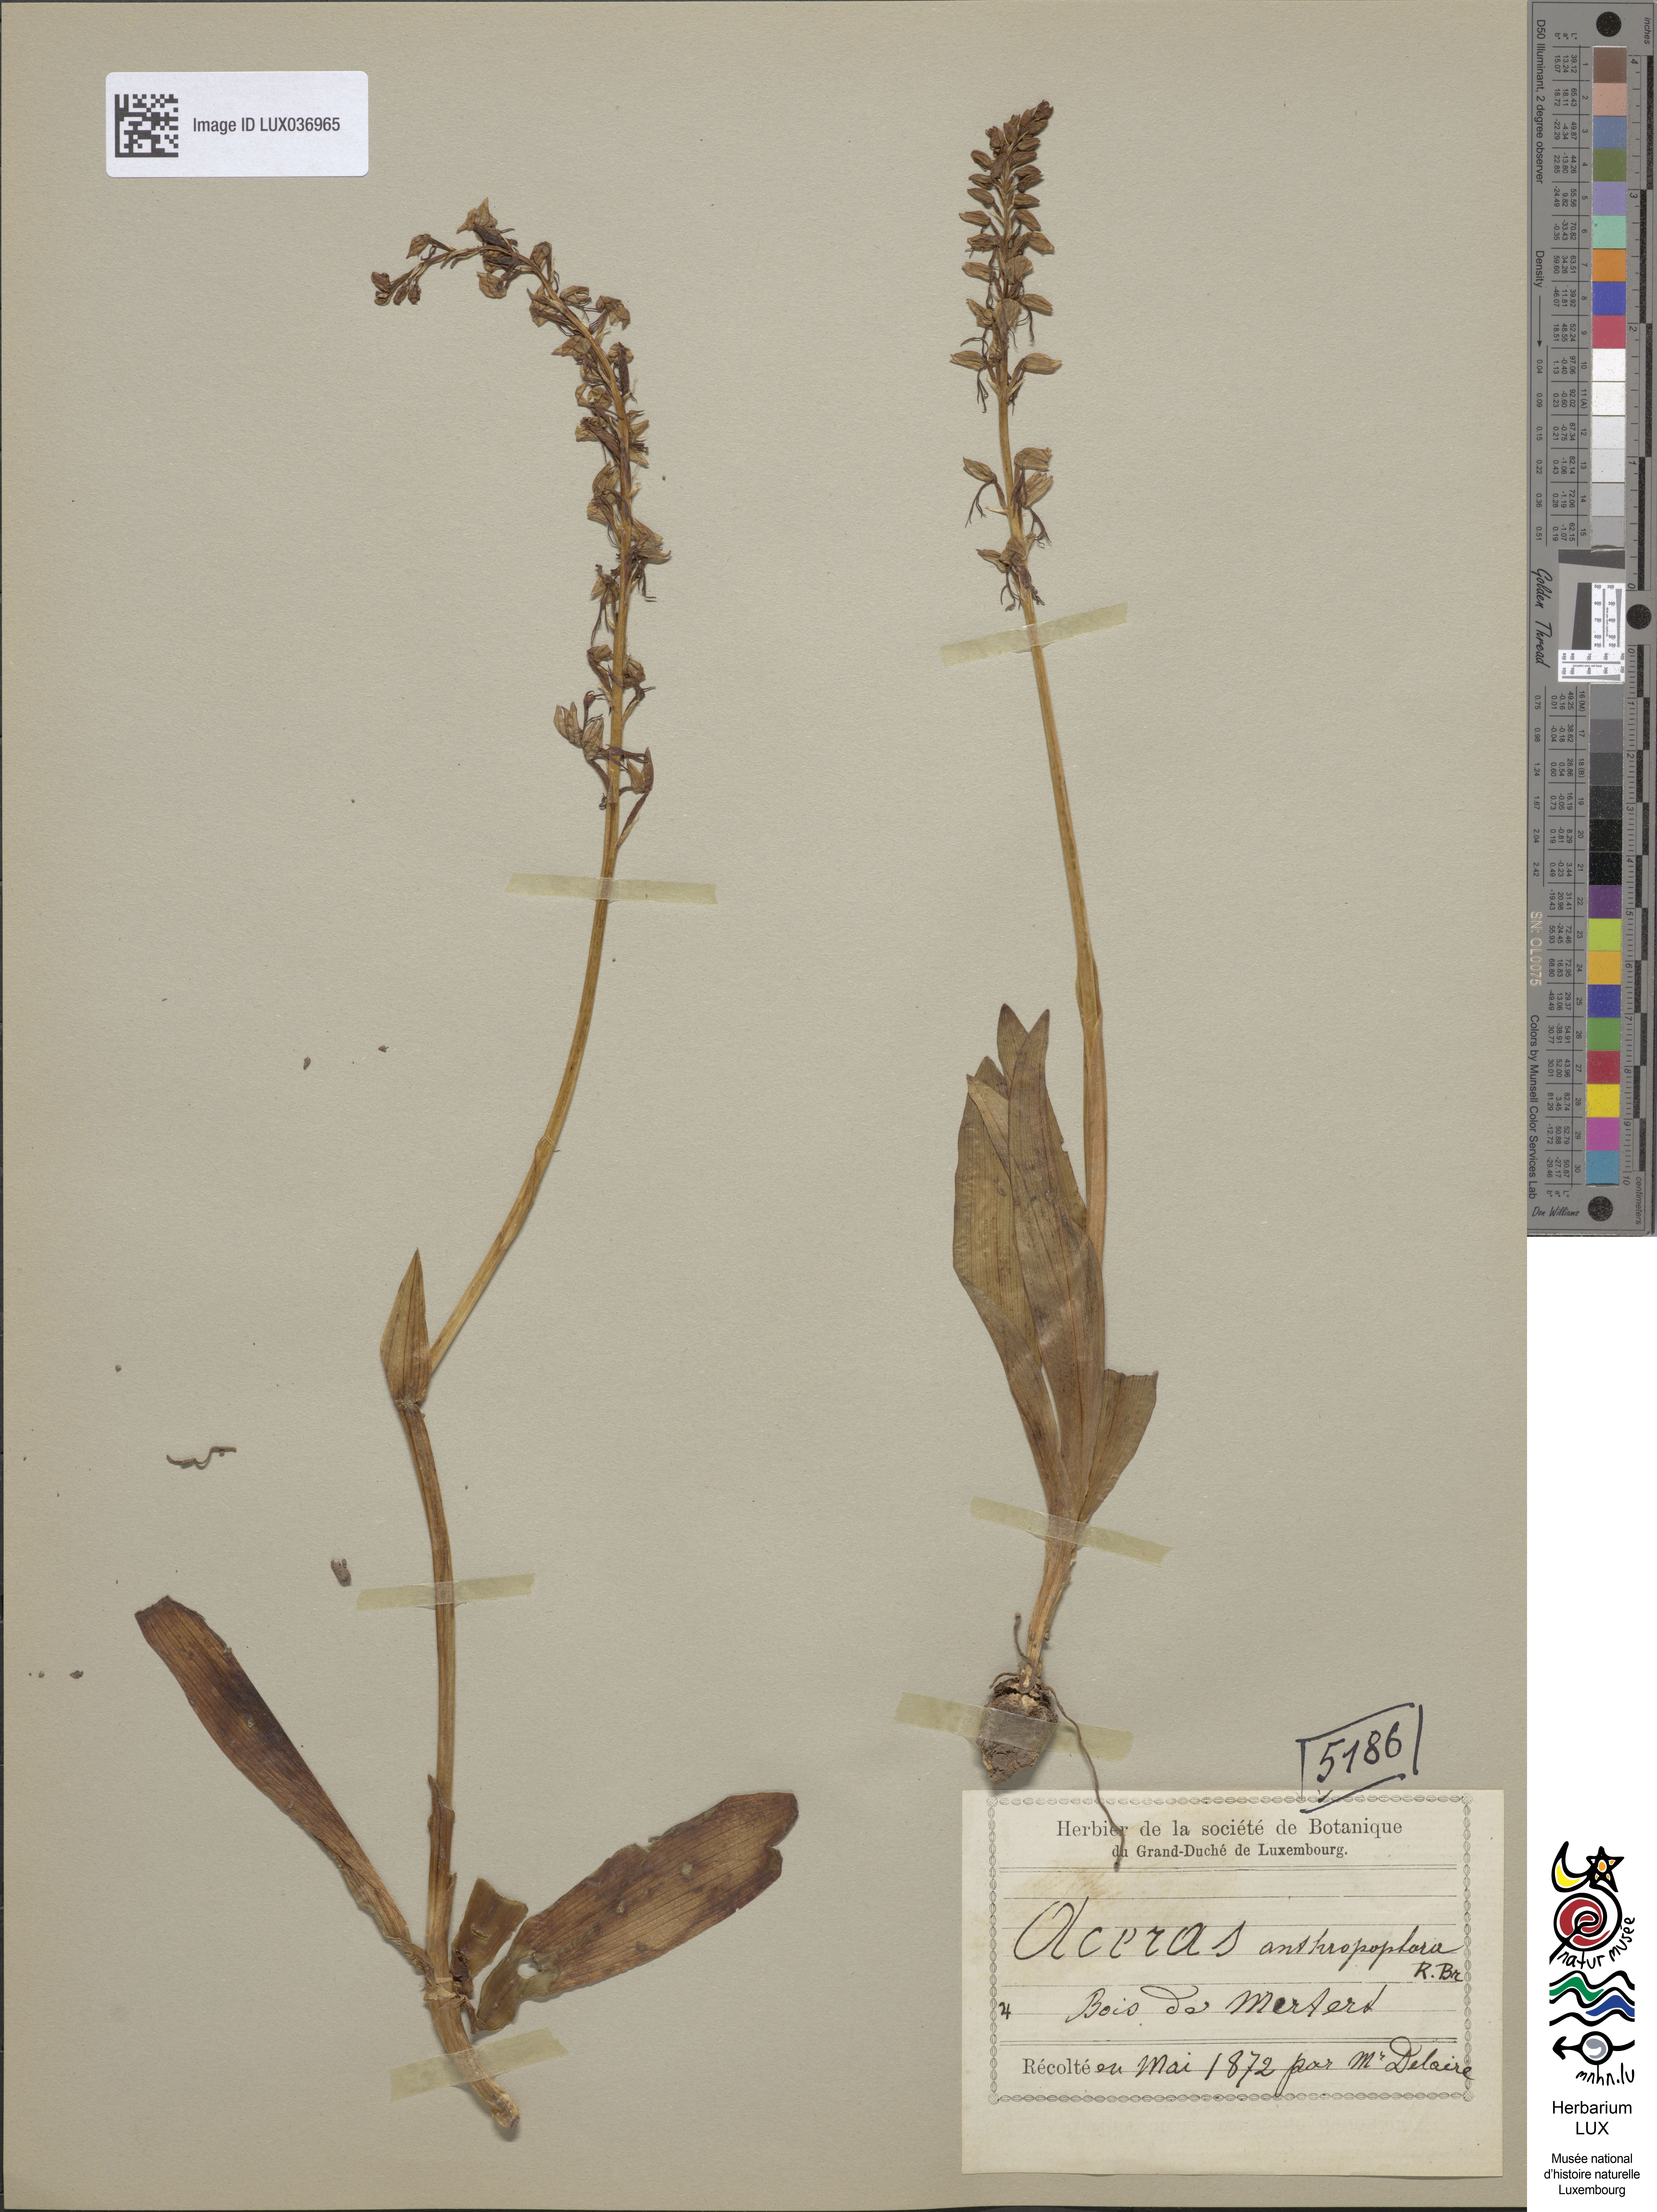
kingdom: Plantae
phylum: Tracheophyta
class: Liliopsida
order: Asparagales
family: Orchidaceae
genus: Orchis
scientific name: Orchis anthropophora
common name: Man orchid
